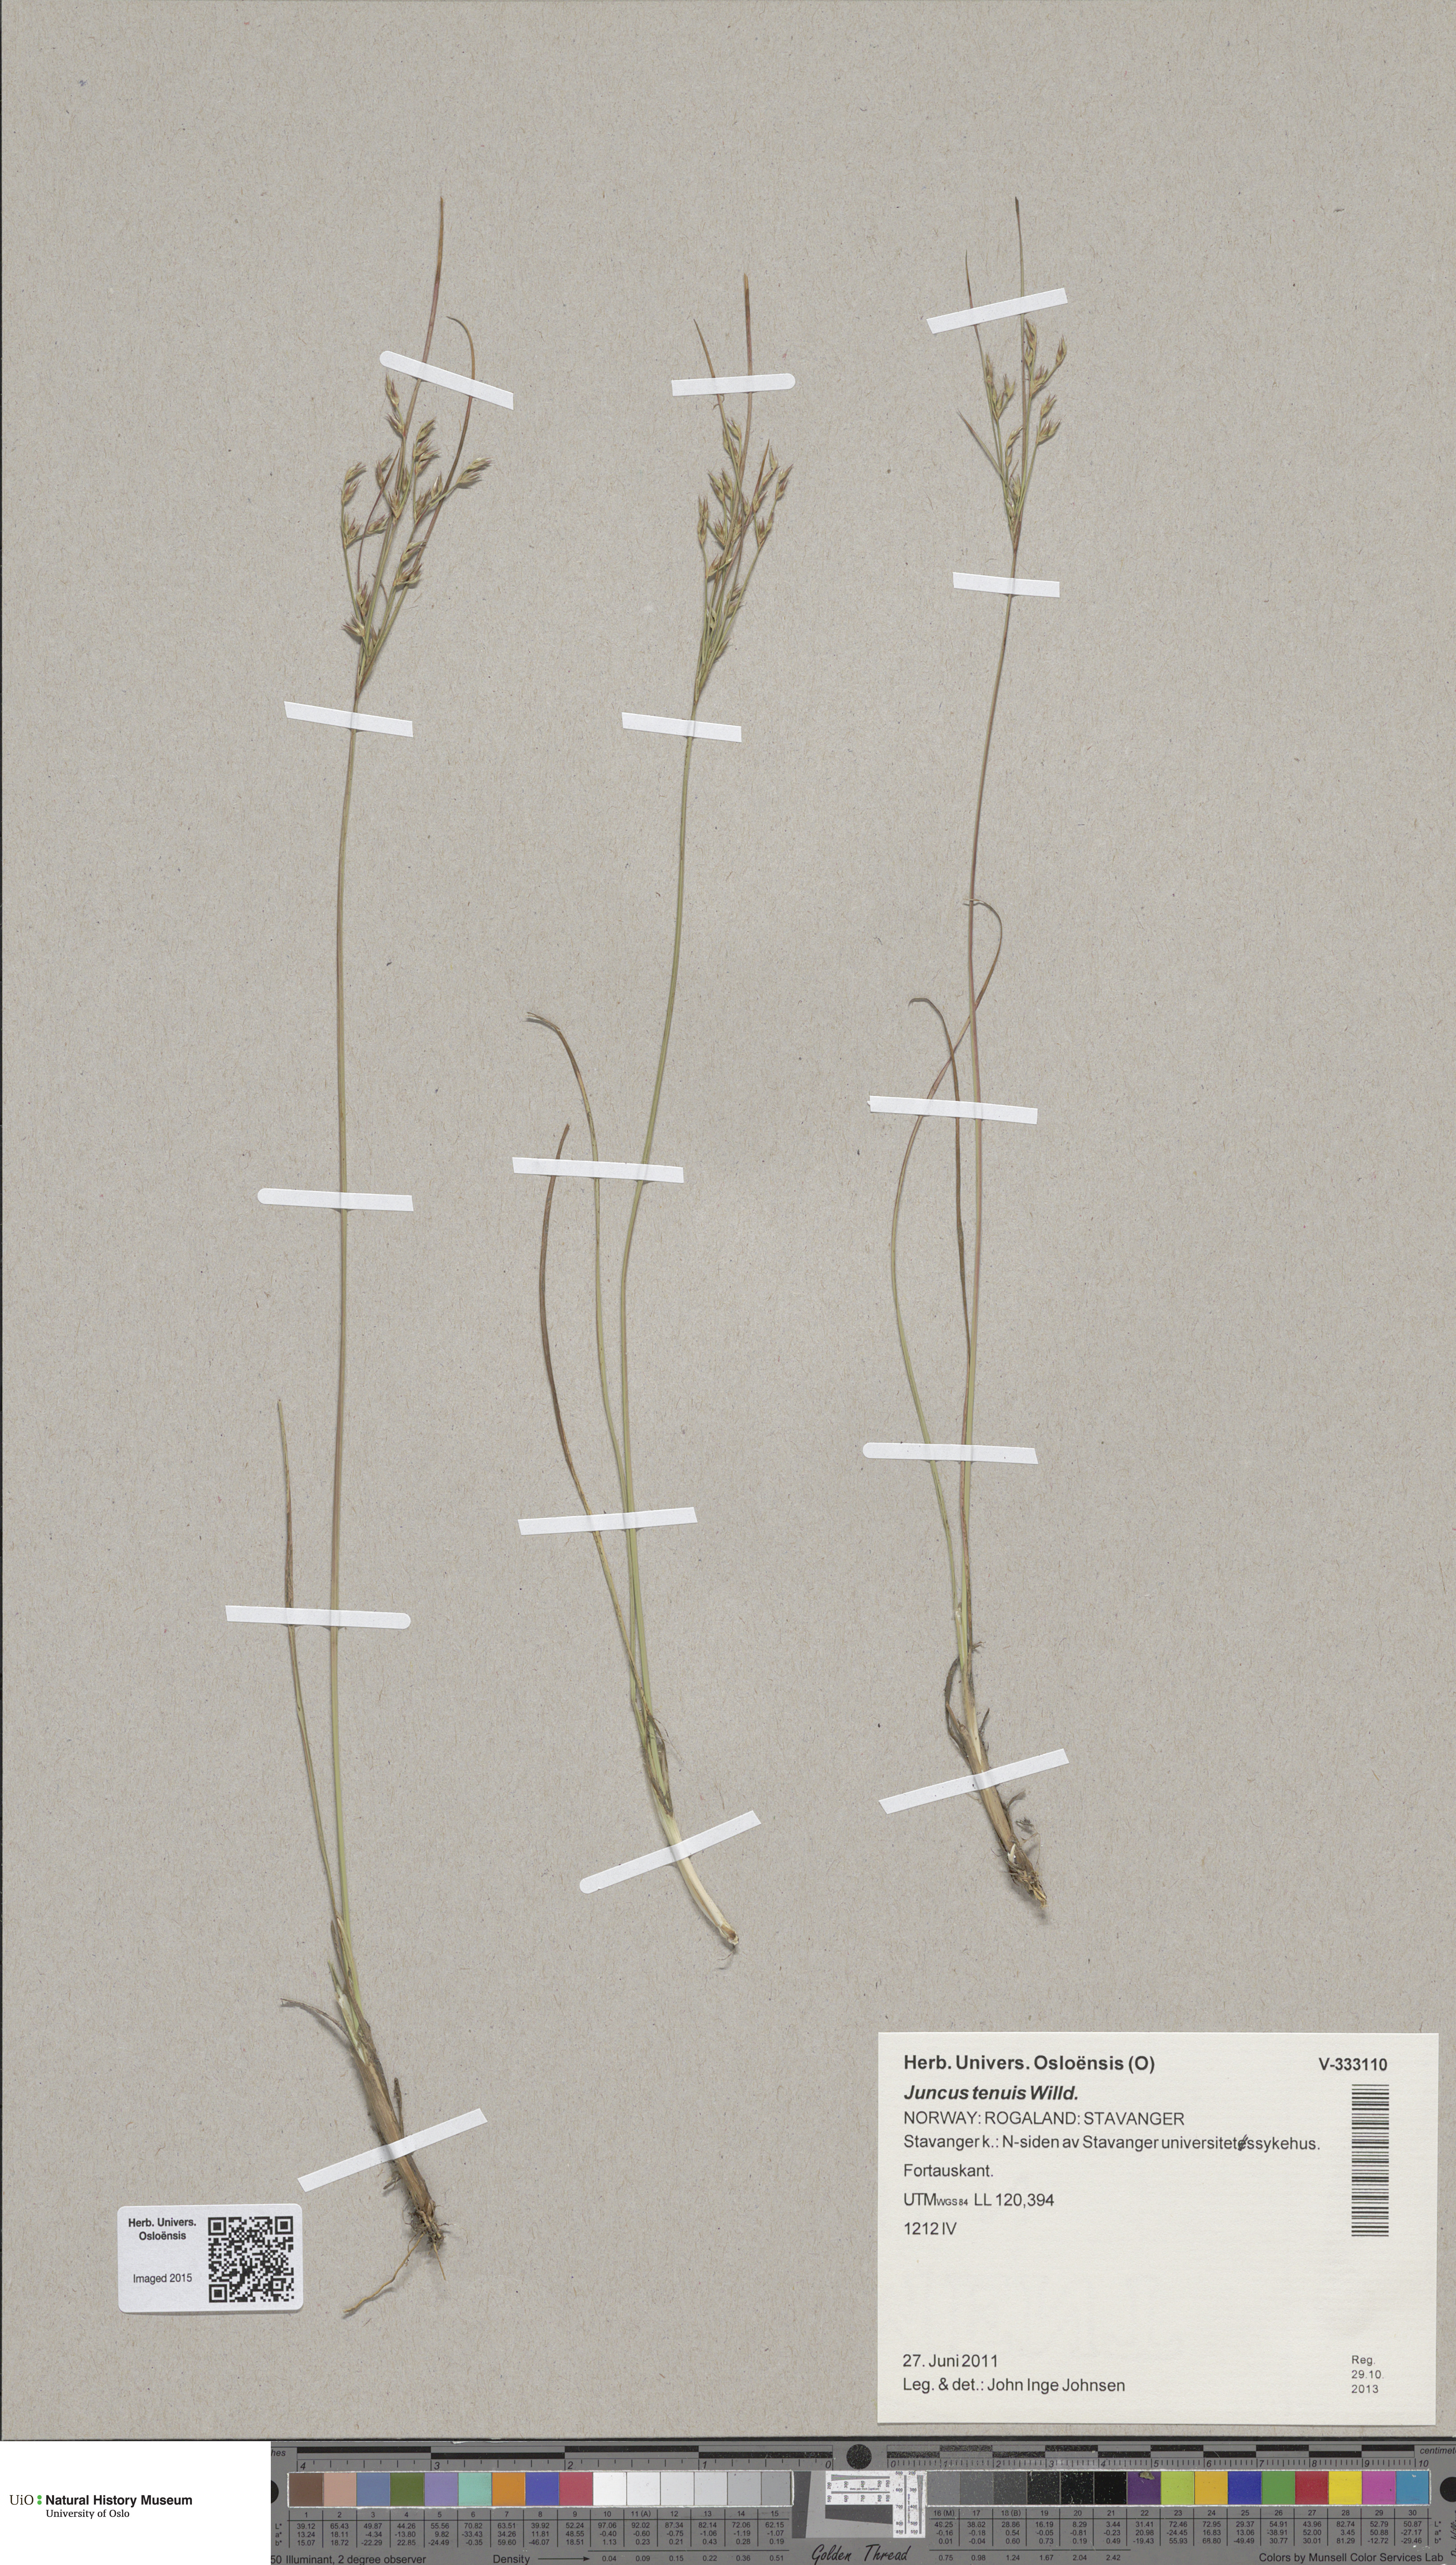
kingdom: Plantae
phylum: Tracheophyta
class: Liliopsida
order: Poales
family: Juncaceae
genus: Juncus
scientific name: Juncus tenuis
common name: Slender rush
